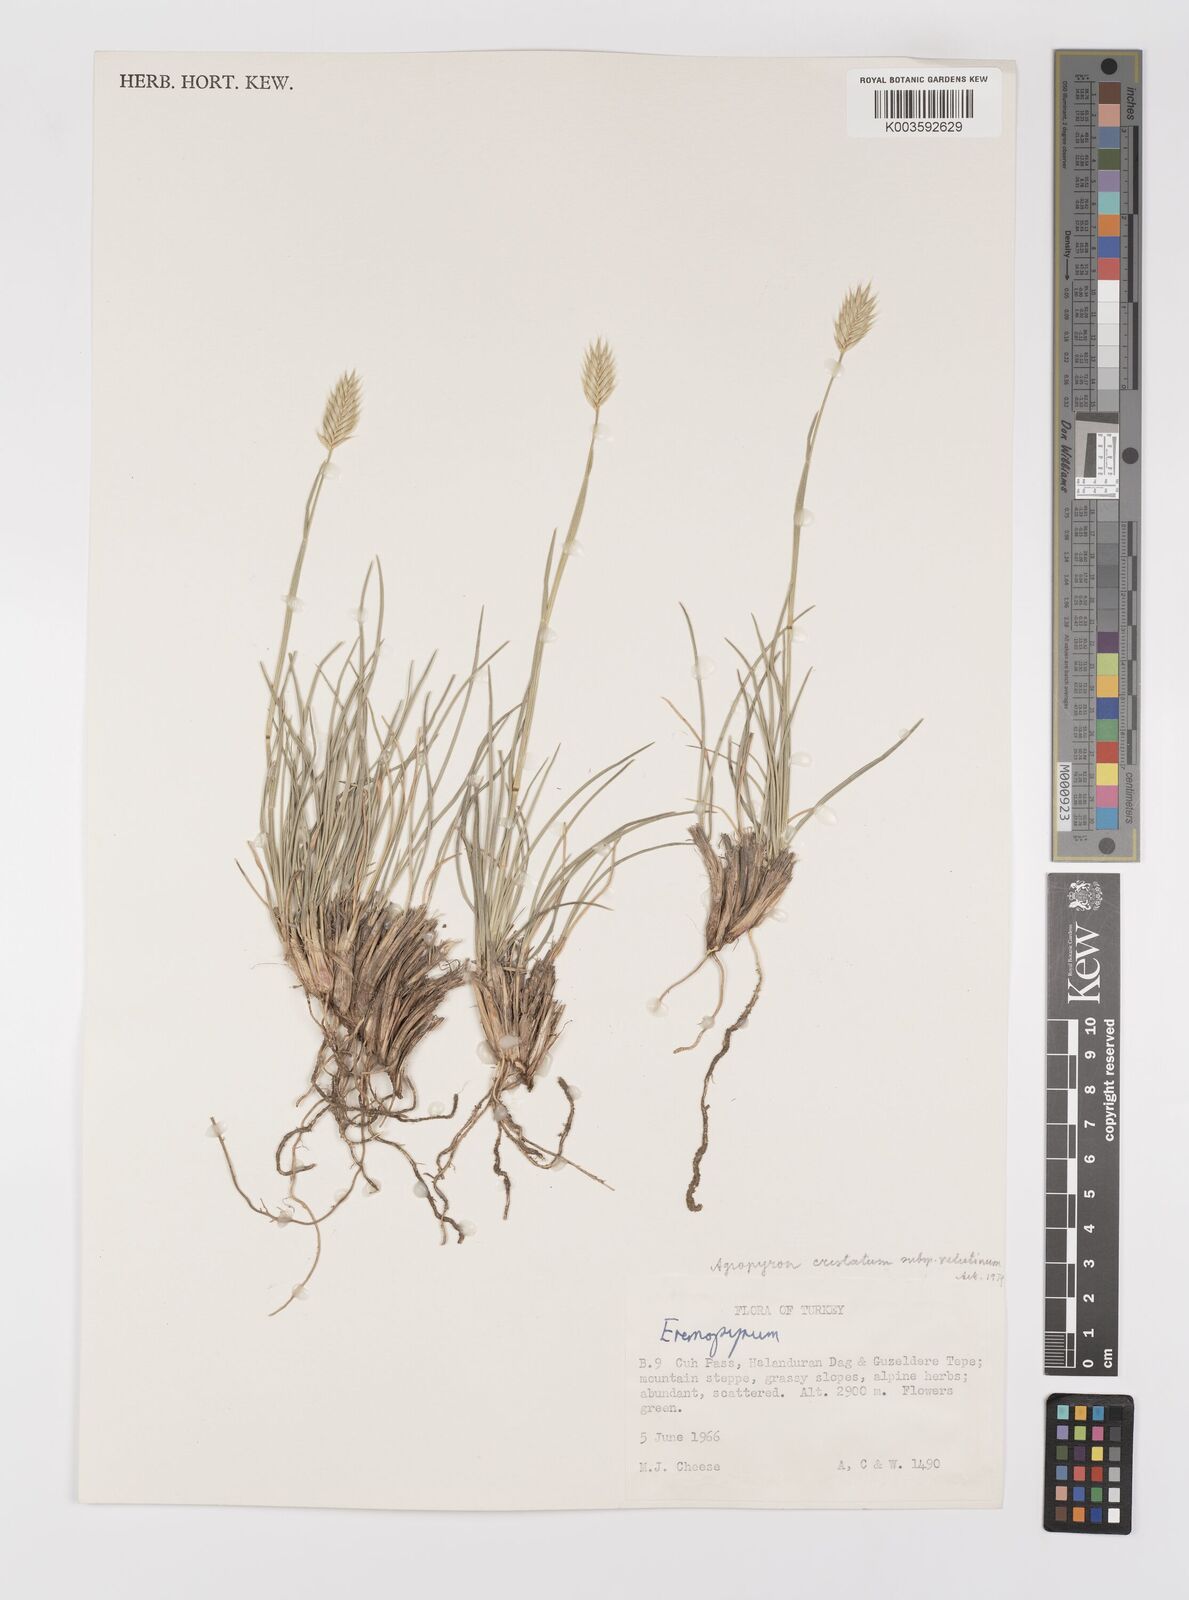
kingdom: Plantae
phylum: Tracheophyta
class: Liliopsida
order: Poales
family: Poaceae
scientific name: Poaceae
